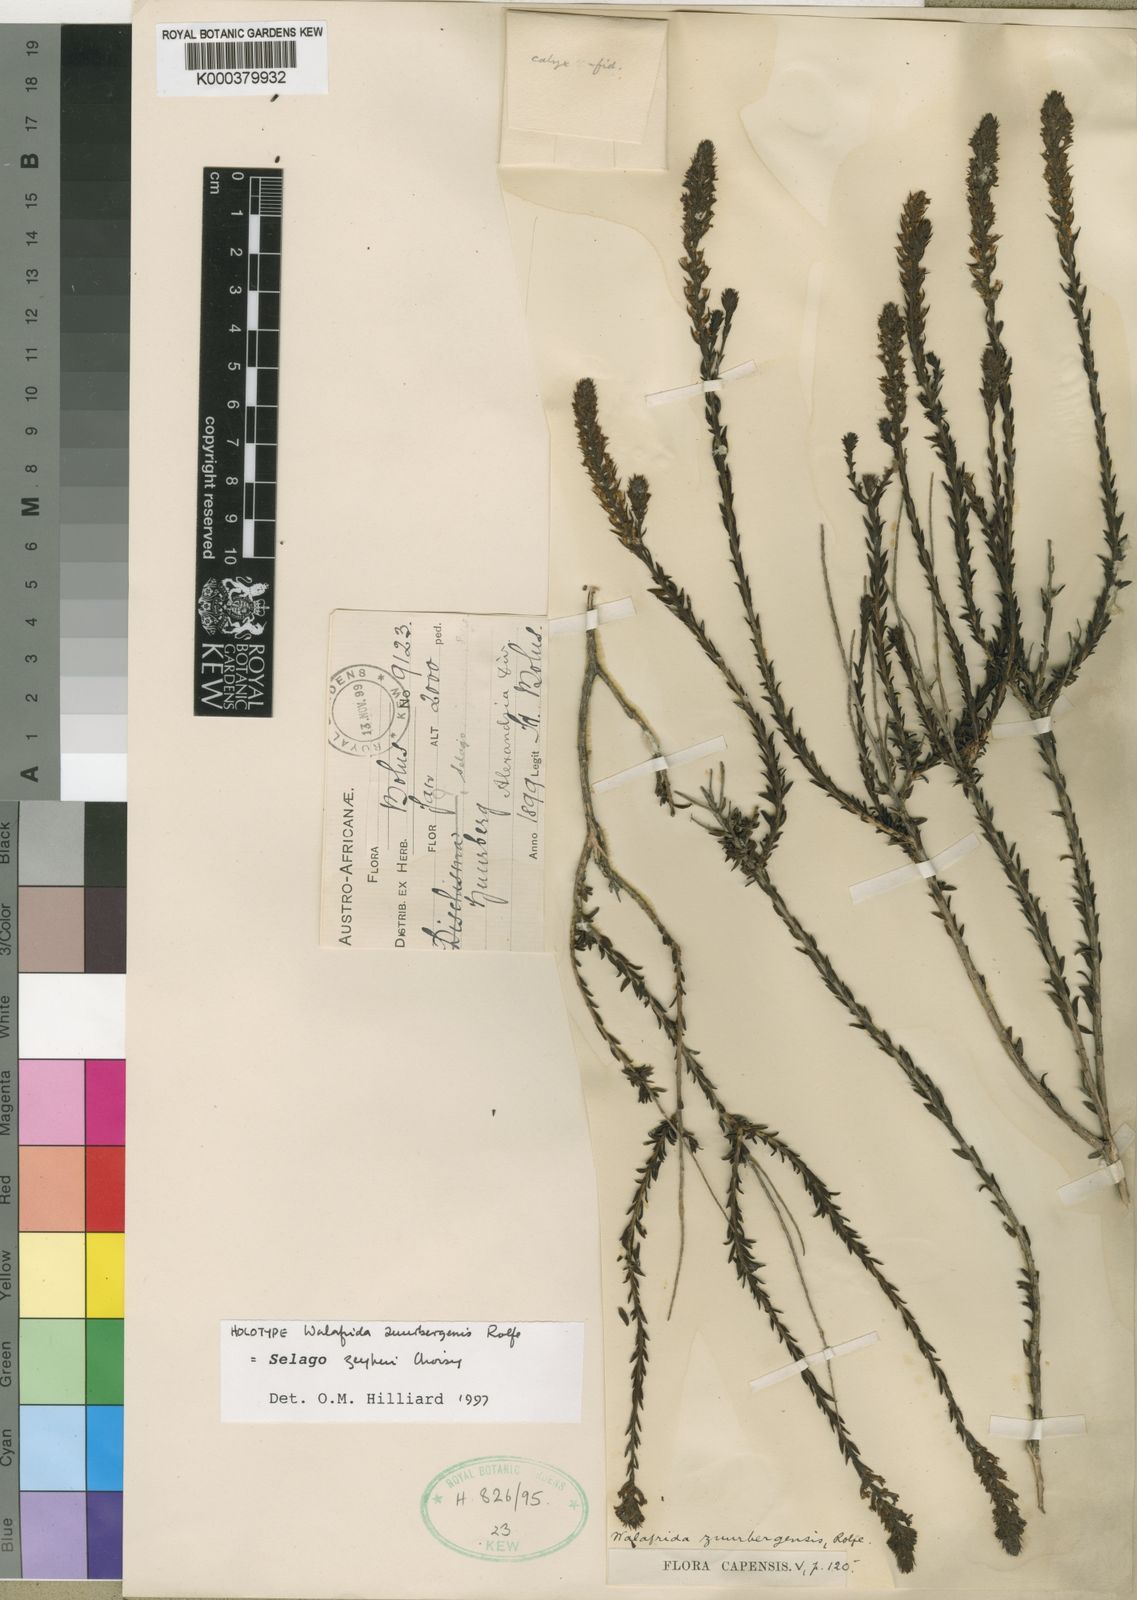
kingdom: Plantae
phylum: Tracheophyta
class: Magnoliopsida
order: Lamiales
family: Scrophulariaceae
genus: Selago
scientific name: Selago zeyheri
